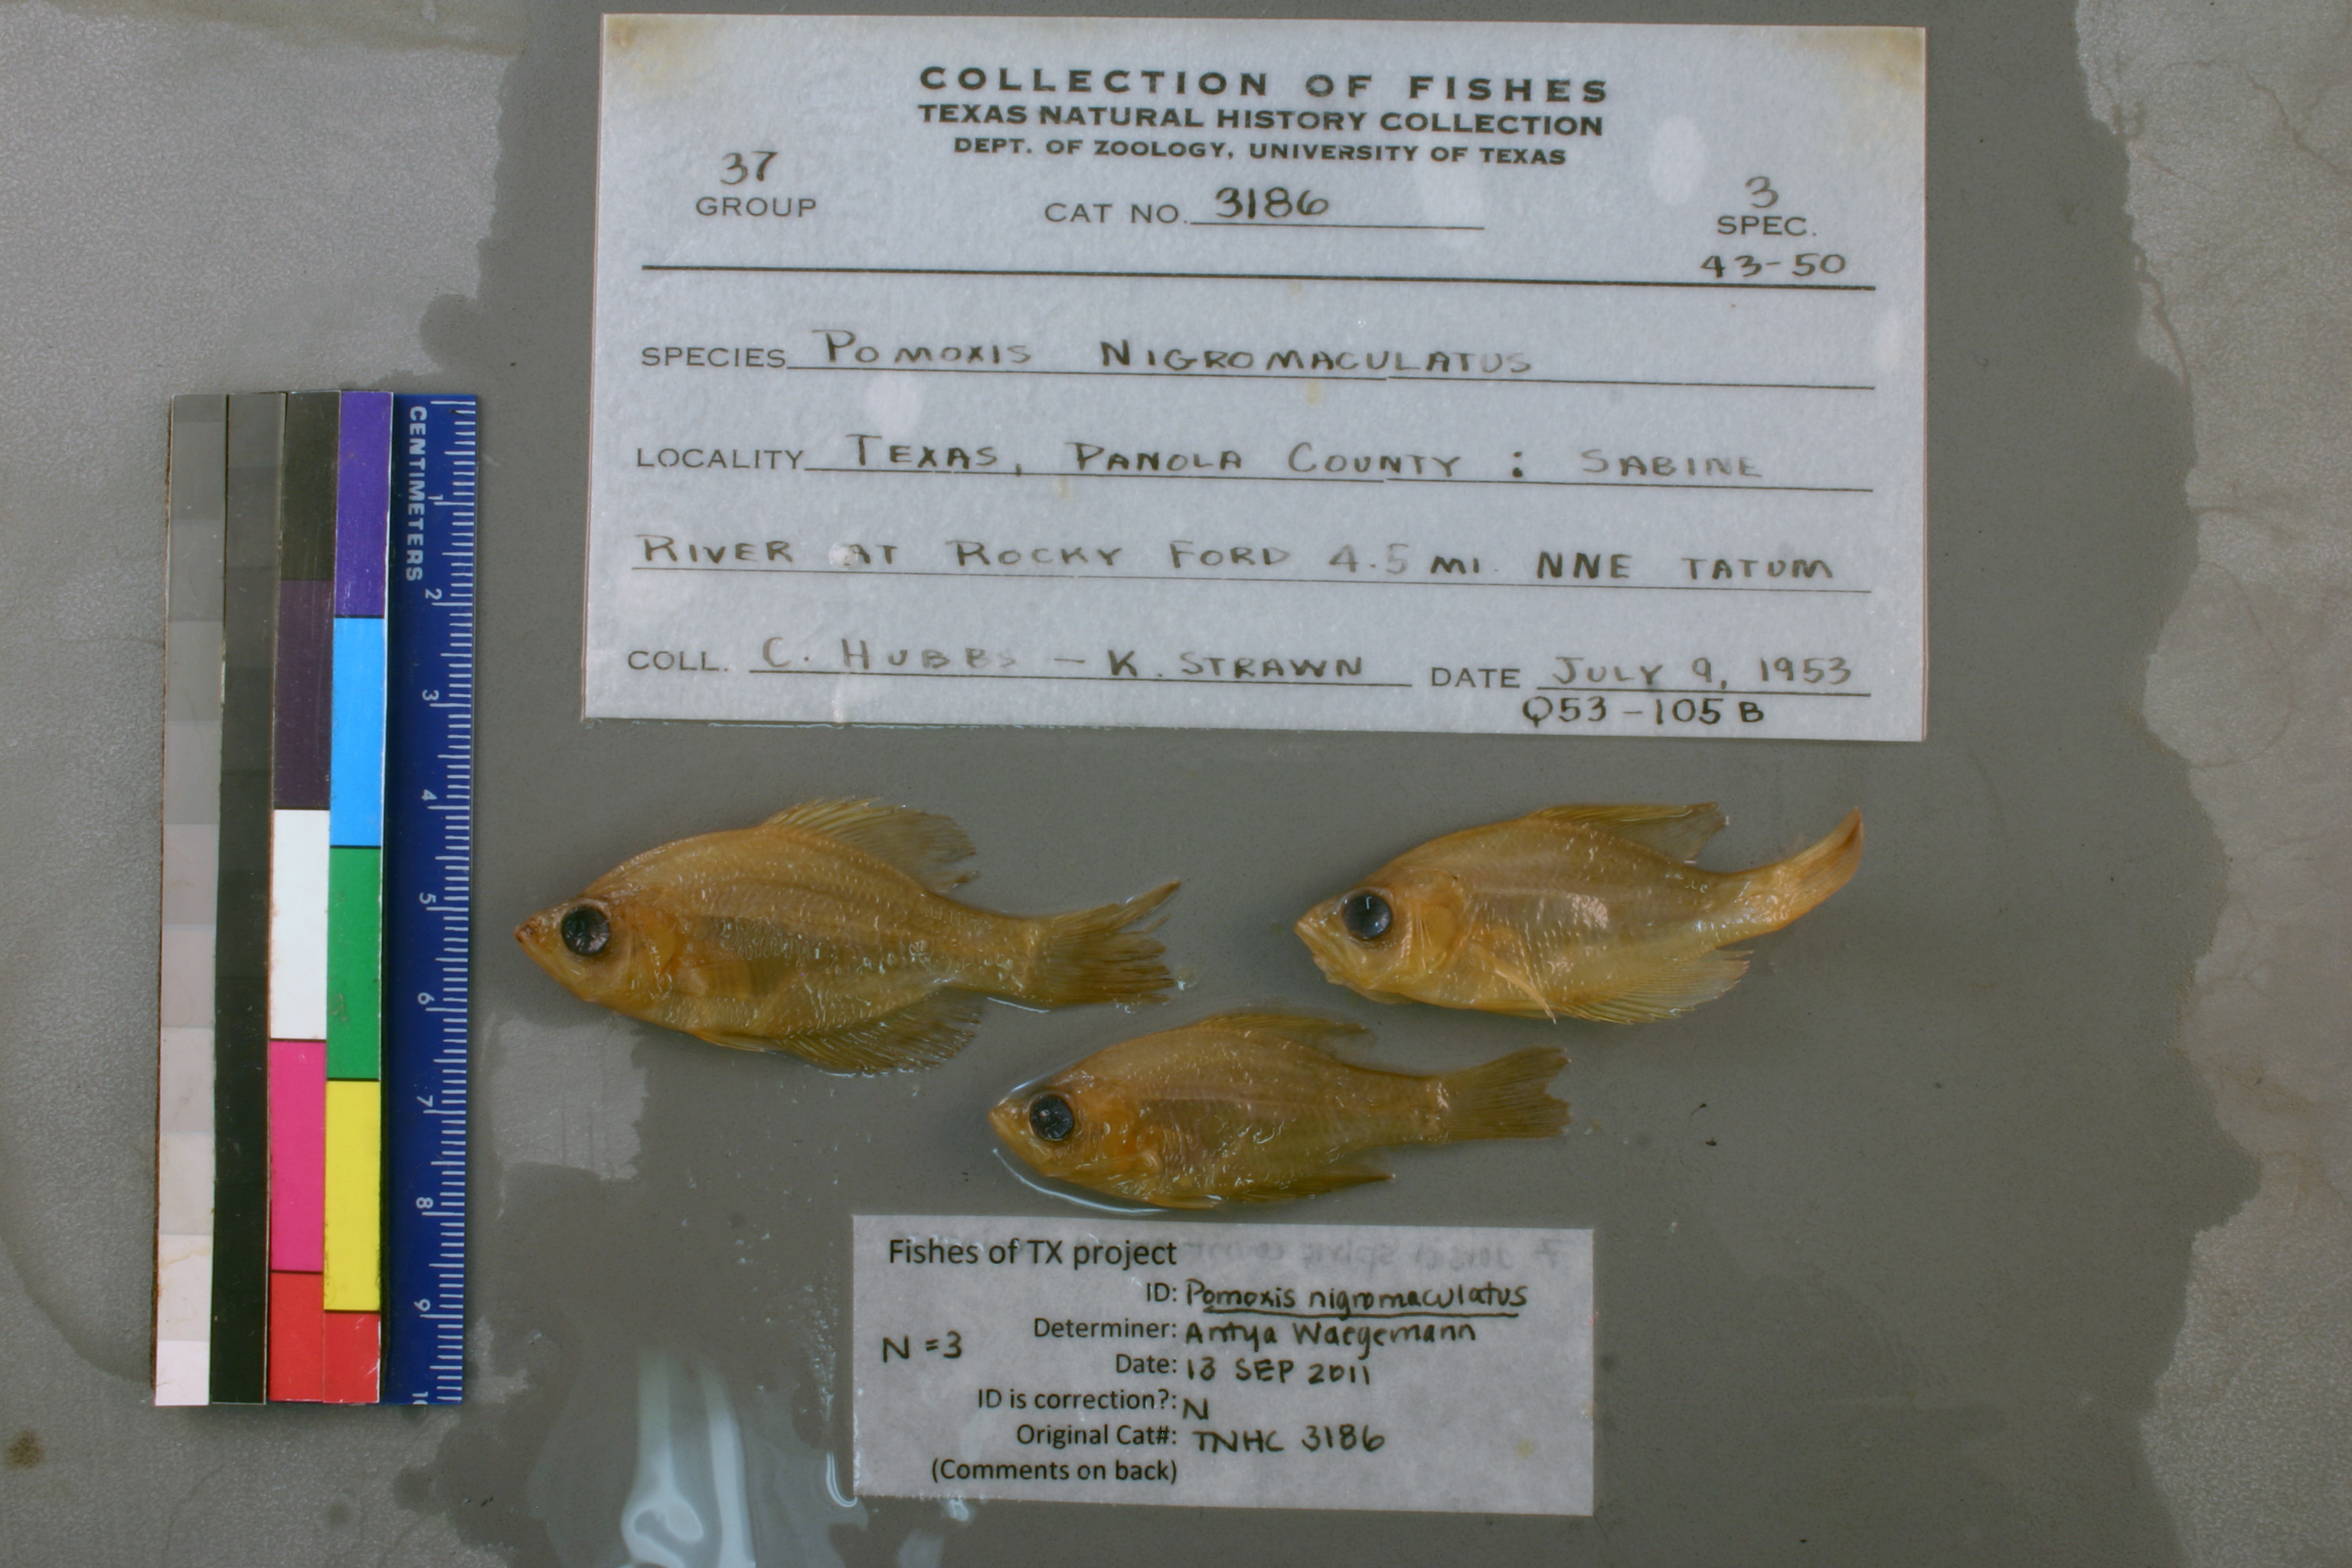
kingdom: Animalia
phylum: Chordata
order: Perciformes
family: Centrarchidae
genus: Pomoxis
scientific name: Pomoxis nigromaculatus
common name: Black crappie
